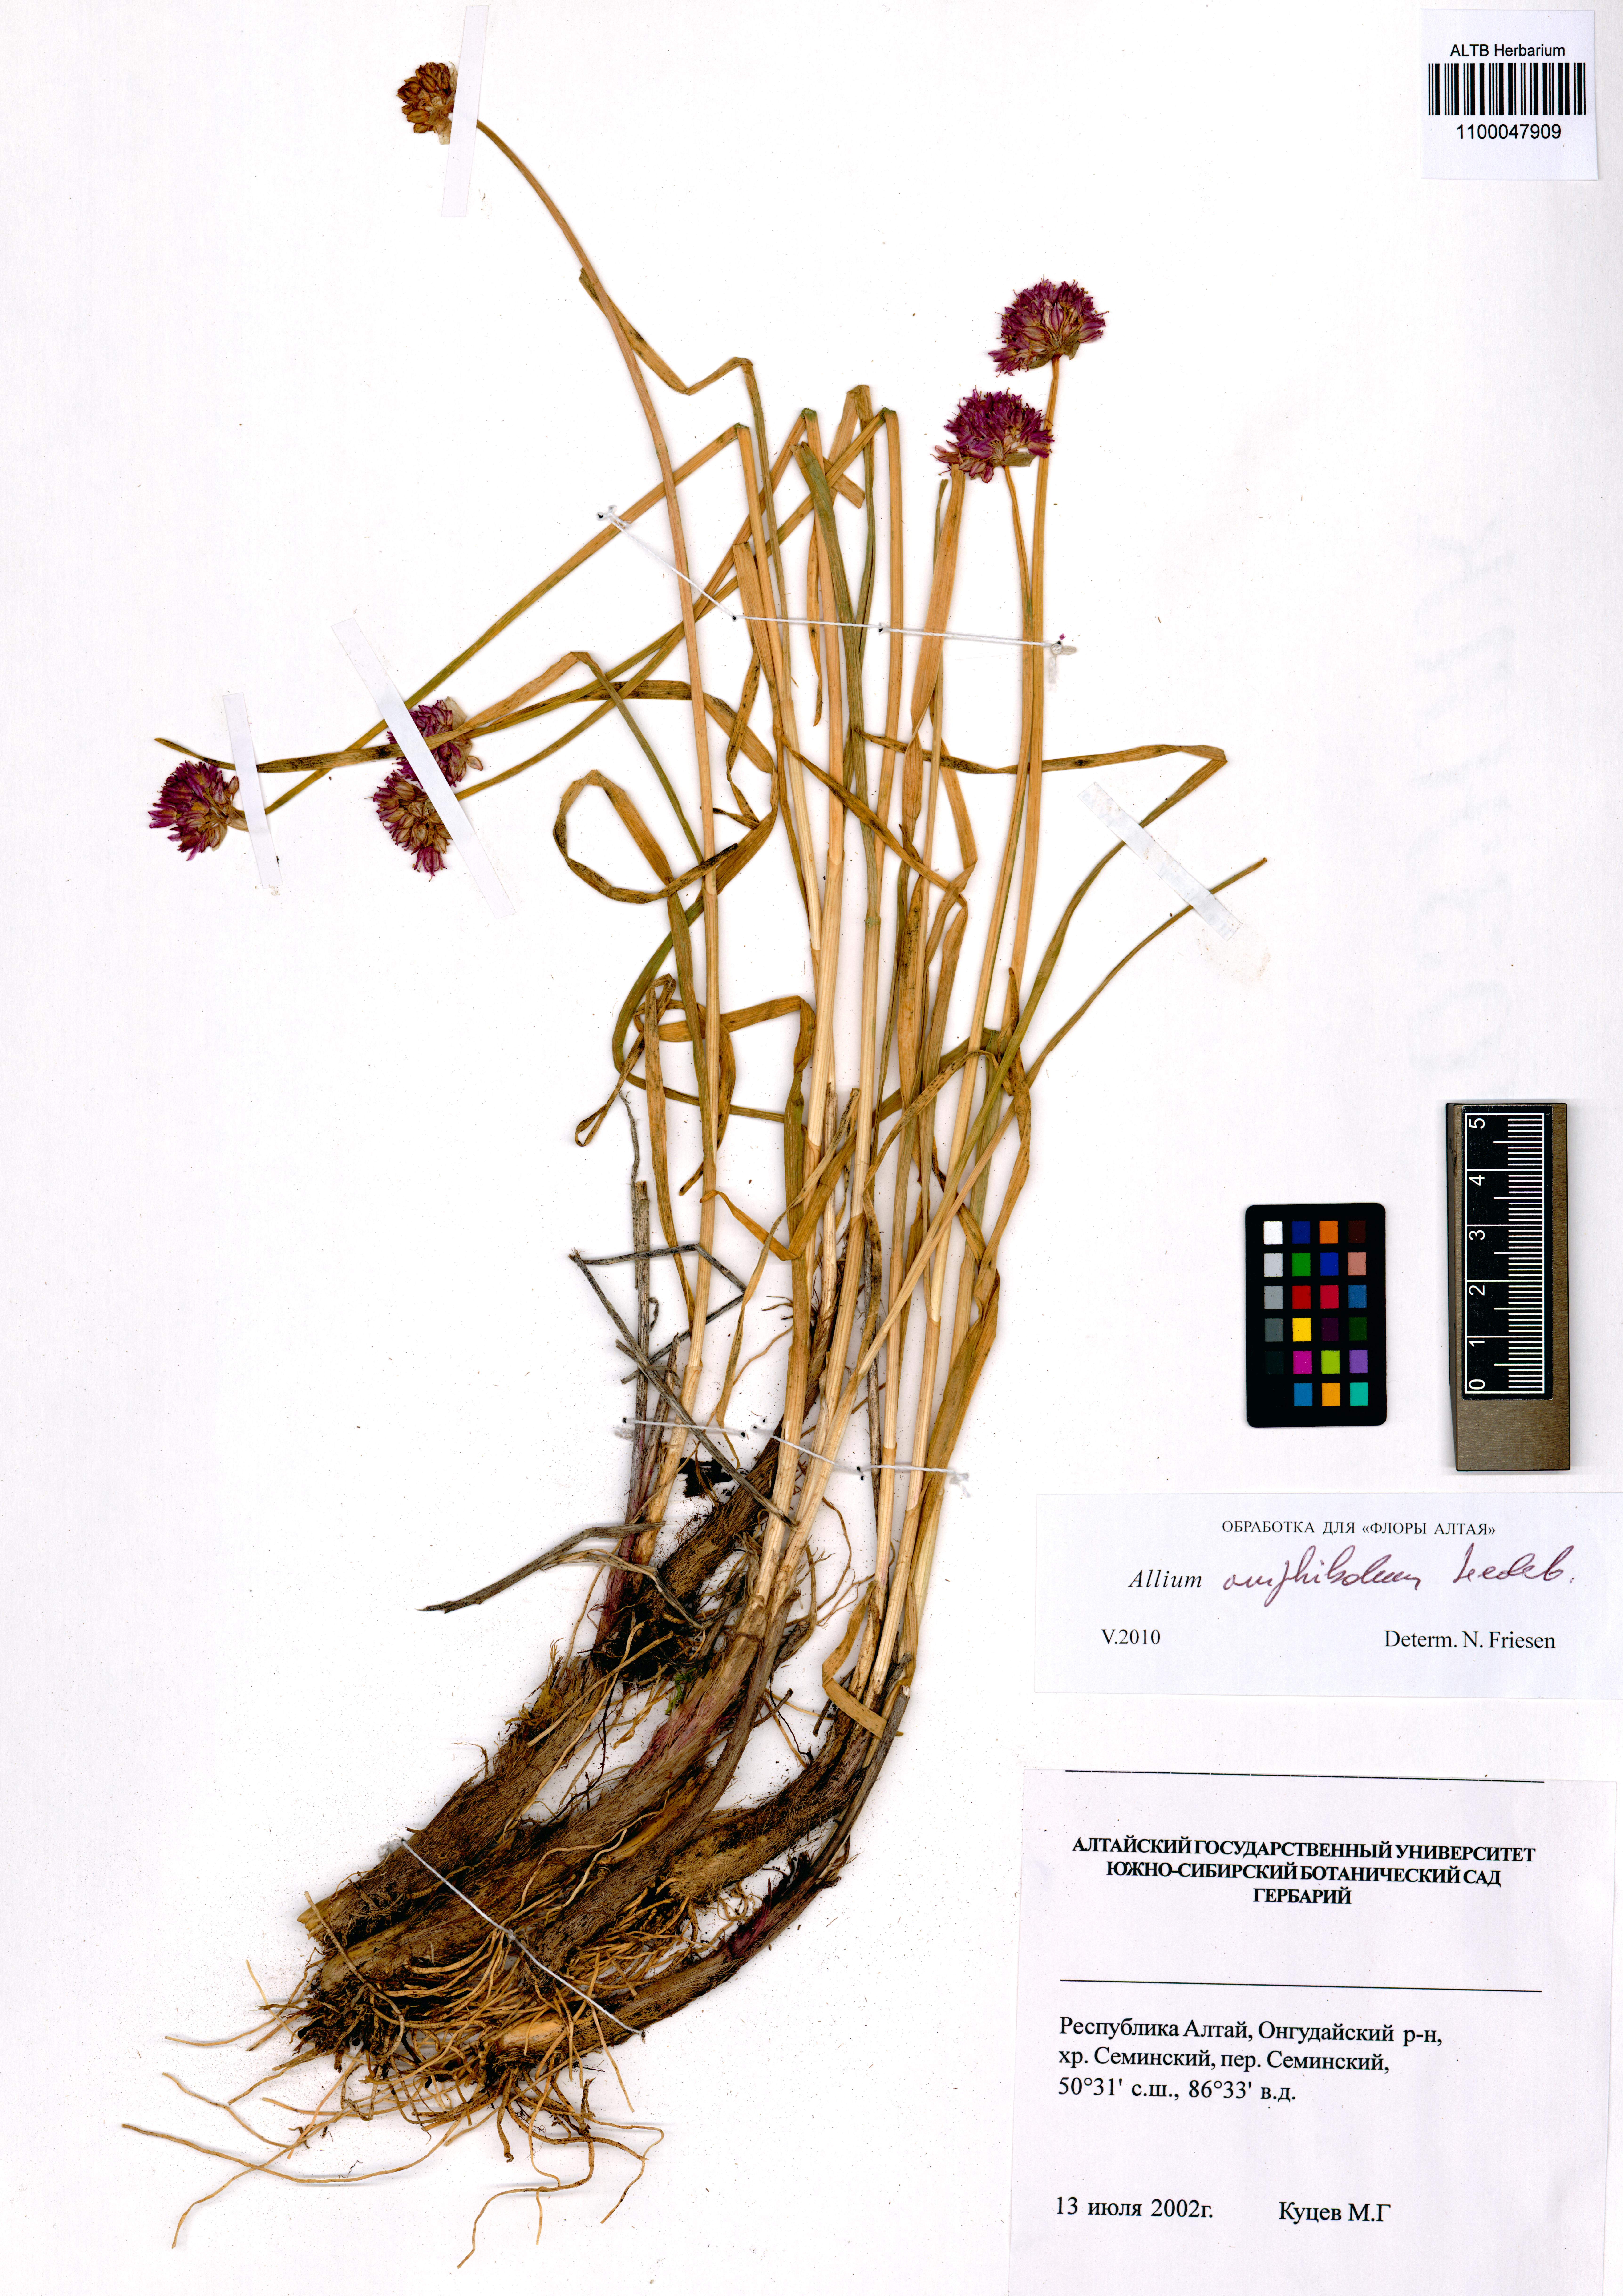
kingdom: Plantae
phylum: Tracheophyta
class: Liliopsida
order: Asparagales
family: Amaryllidaceae
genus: Allium
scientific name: Allium amphibolum
